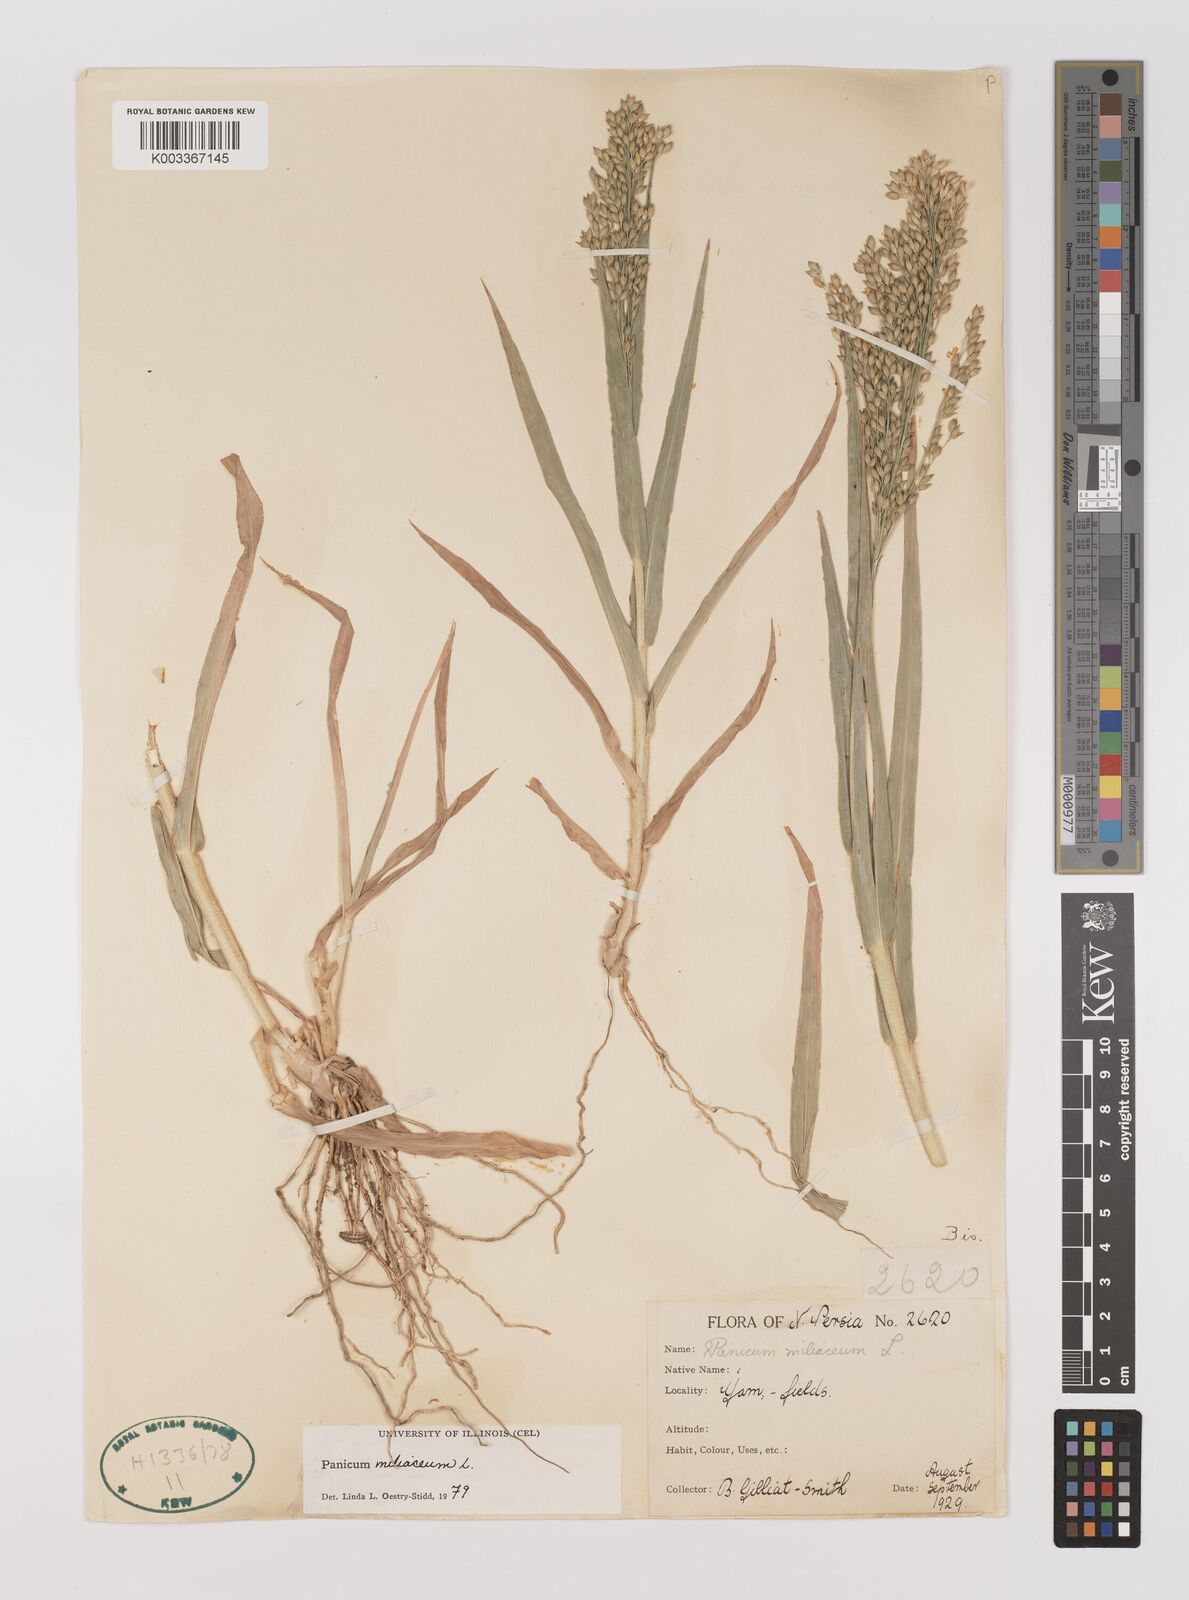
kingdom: Plantae
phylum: Tracheophyta
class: Liliopsida
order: Poales
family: Poaceae
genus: Panicum
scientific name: Panicum miliaceum
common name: Common millet
